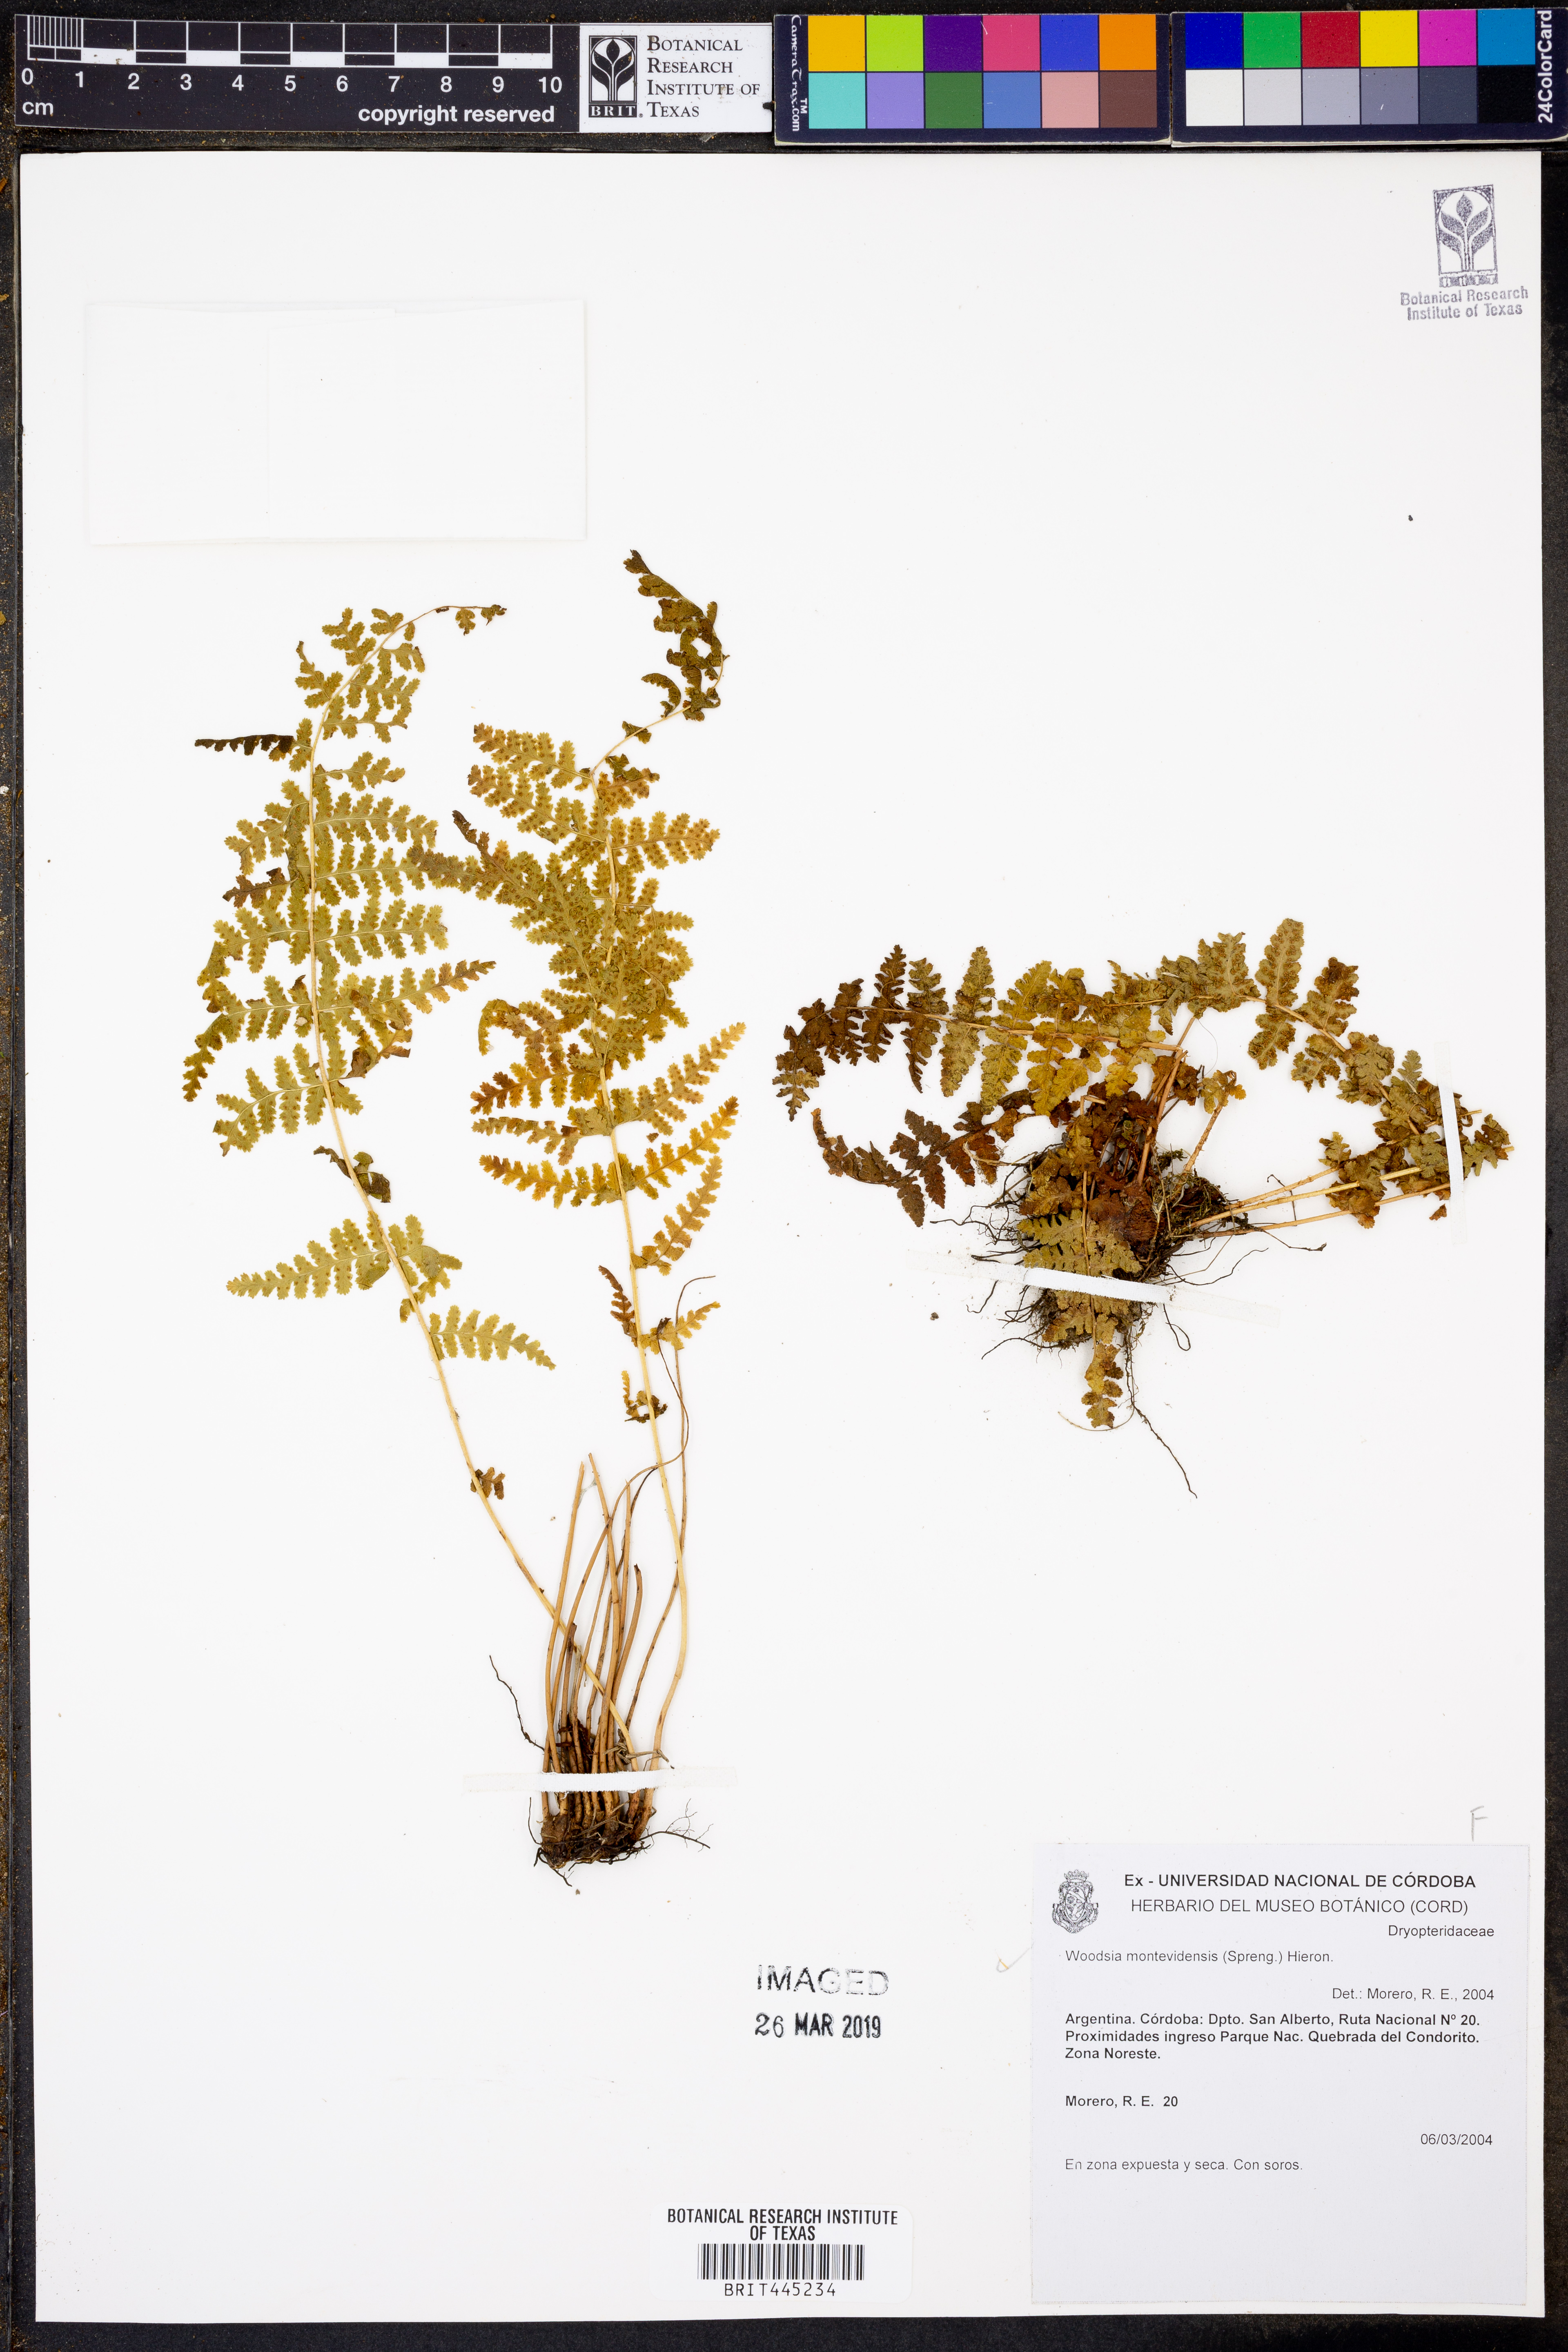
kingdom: Plantae
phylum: Tracheophyta
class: Polypodiopsida
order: Polypodiales
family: Woodsiaceae
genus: Physematium
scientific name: Physematium montevidense
